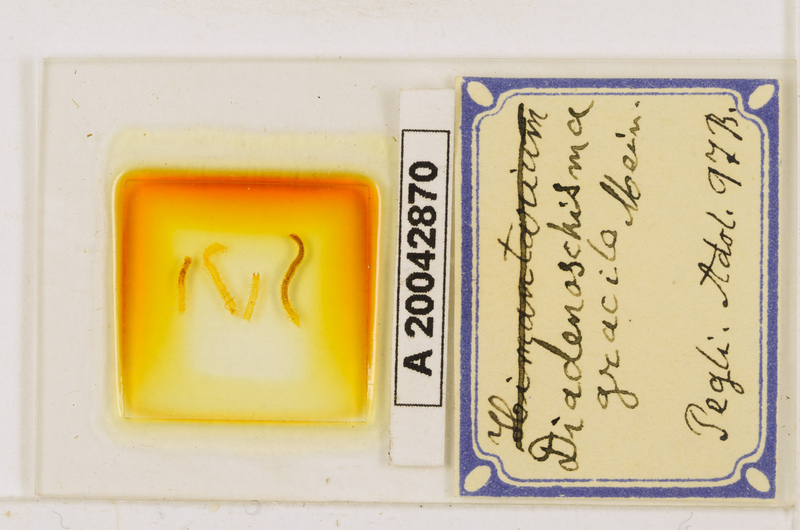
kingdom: Animalia
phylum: Arthropoda
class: Chilopoda
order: Geophilomorpha
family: Himantariidae
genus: Stigmatogaster
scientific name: Stigmatogaster
